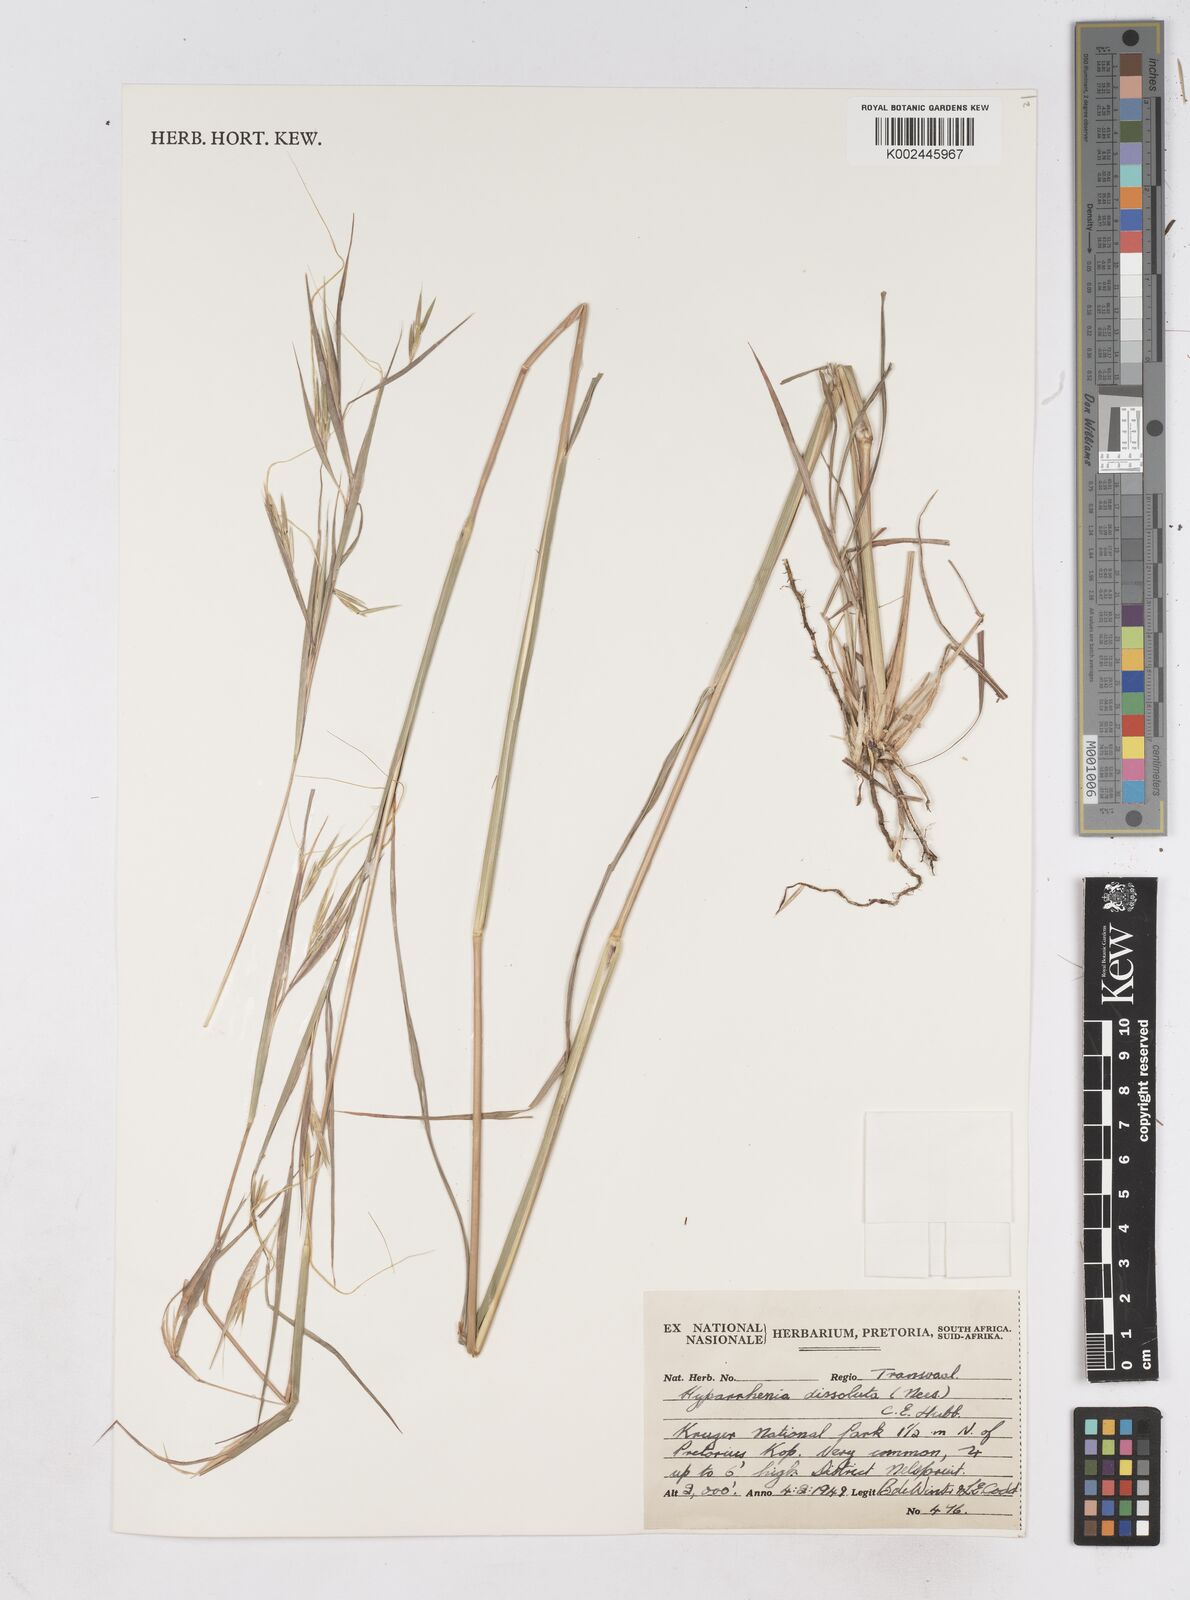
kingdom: Plantae
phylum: Tracheophyta
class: Liliopsida
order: Poales
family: Poaceae
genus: Hyperthelia
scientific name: Hyperthelia dissoluta
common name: Yellow thatching grass
